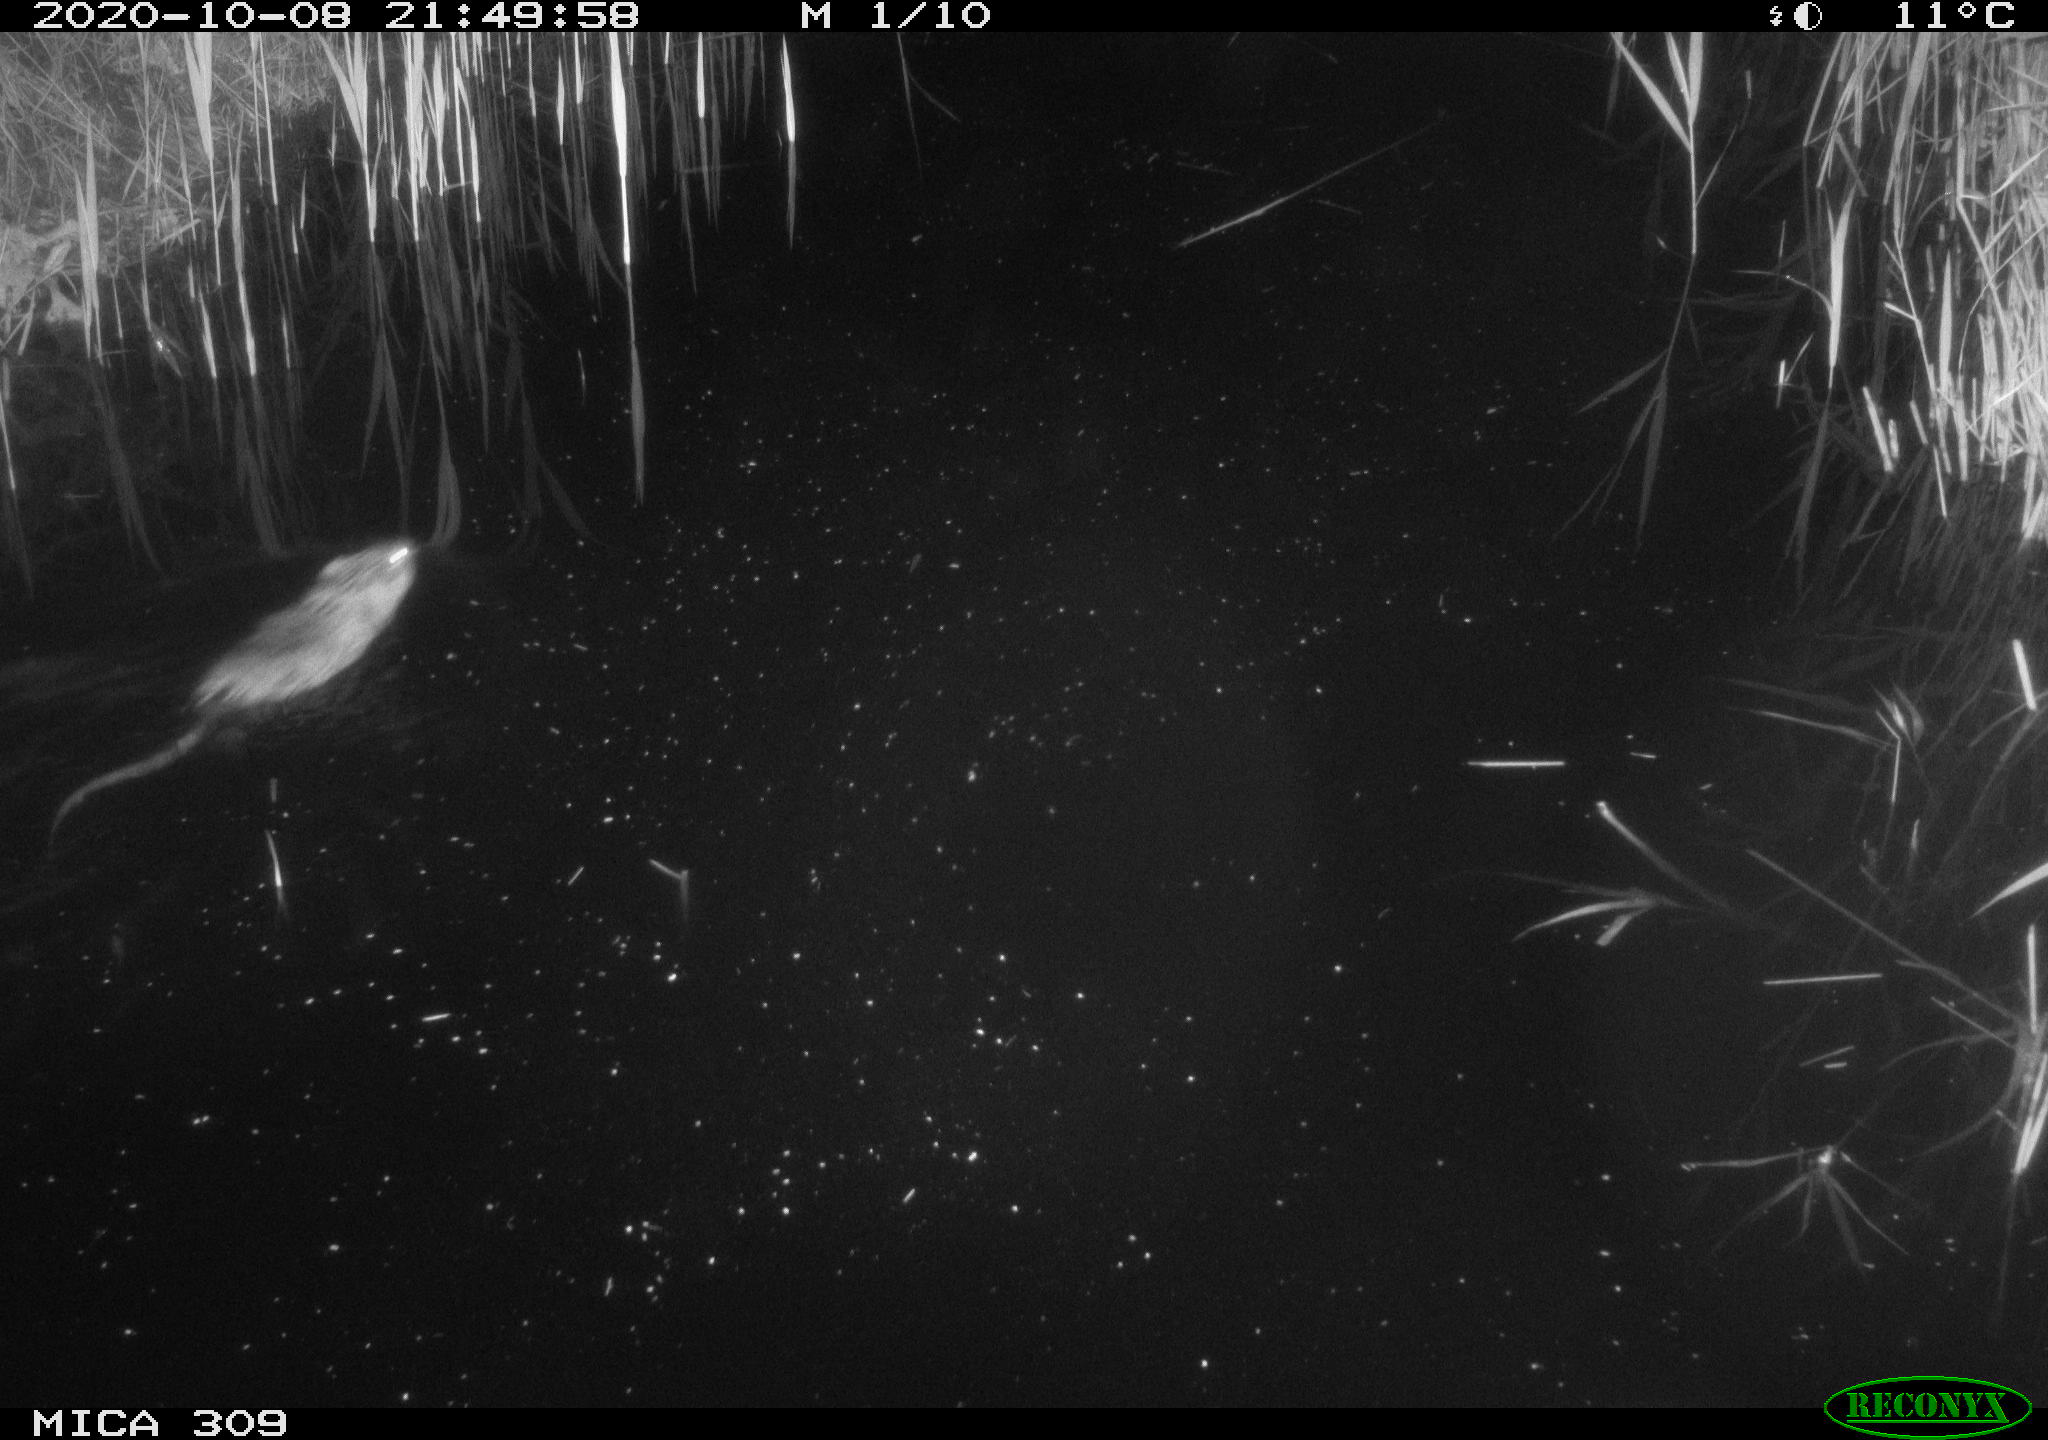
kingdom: Animalia
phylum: Chordata
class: Mammalia
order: Rodentia
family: Muridae
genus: Rattus
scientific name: Rattus norvegicus
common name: Brown rat
